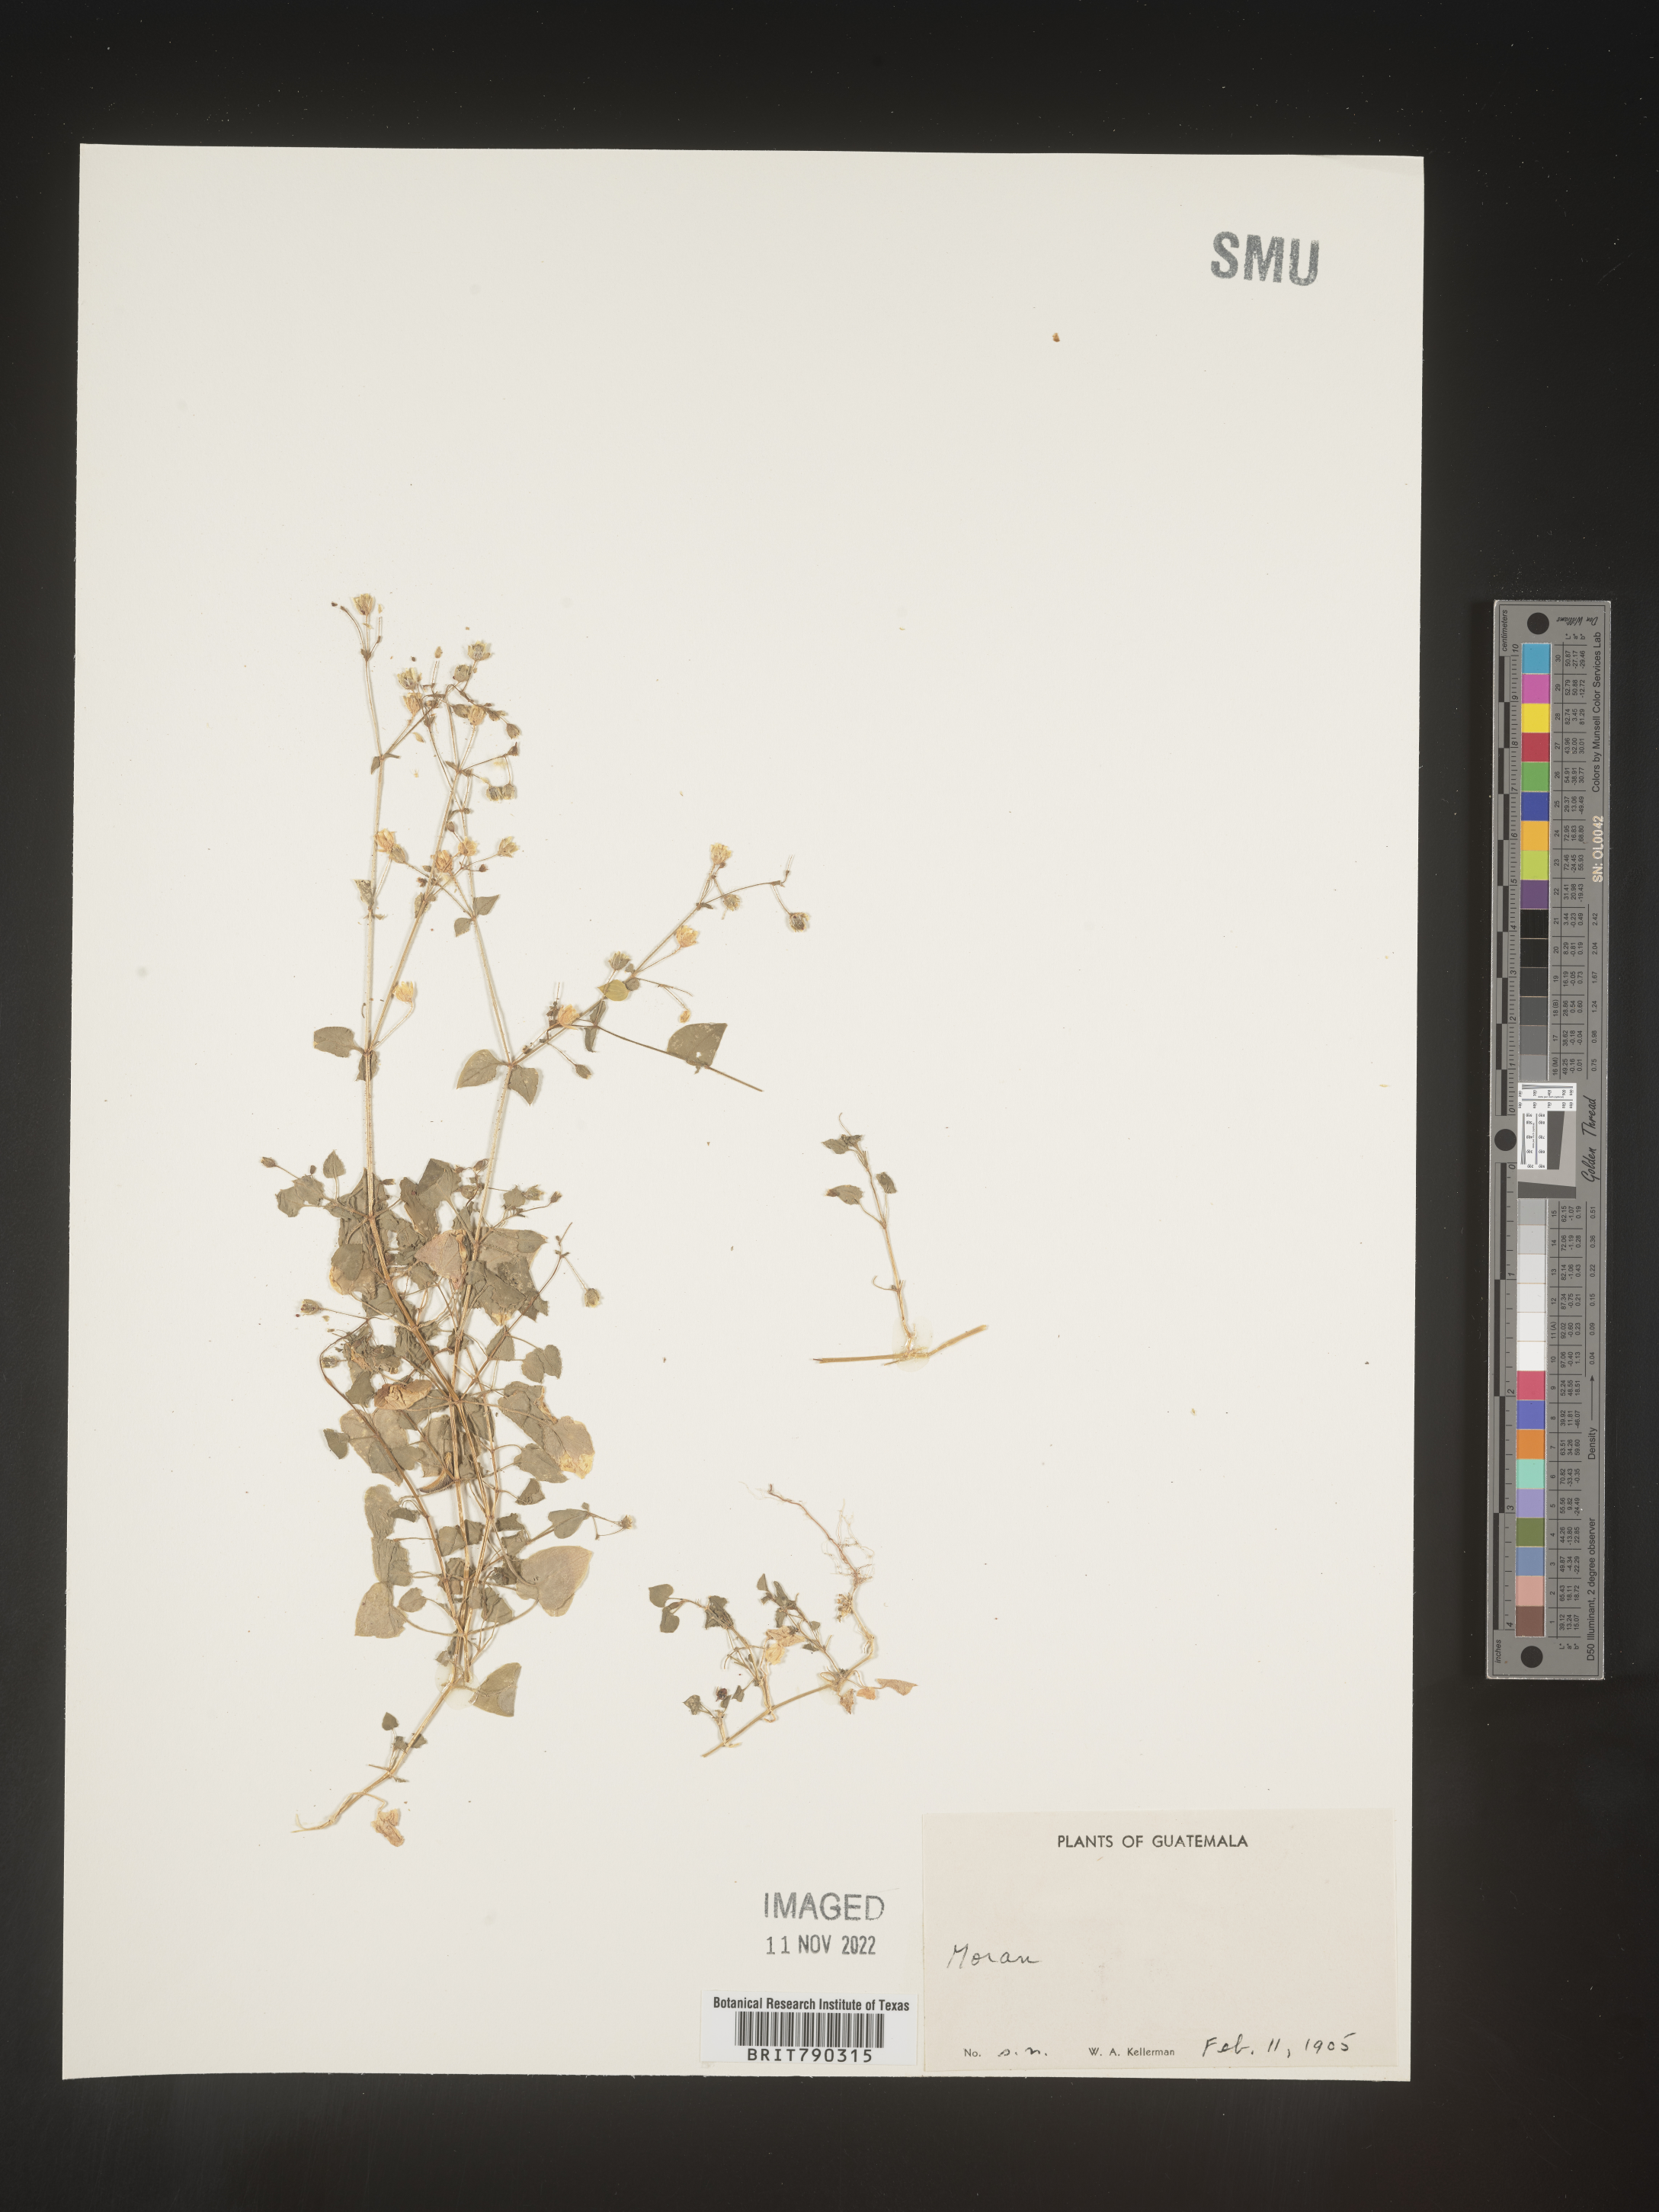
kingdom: Plantae
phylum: Tracheophyta
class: Magnoliopsida
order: Caryophyllales
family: Caryophyllaceae
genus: Drymaria
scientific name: Drymaria
